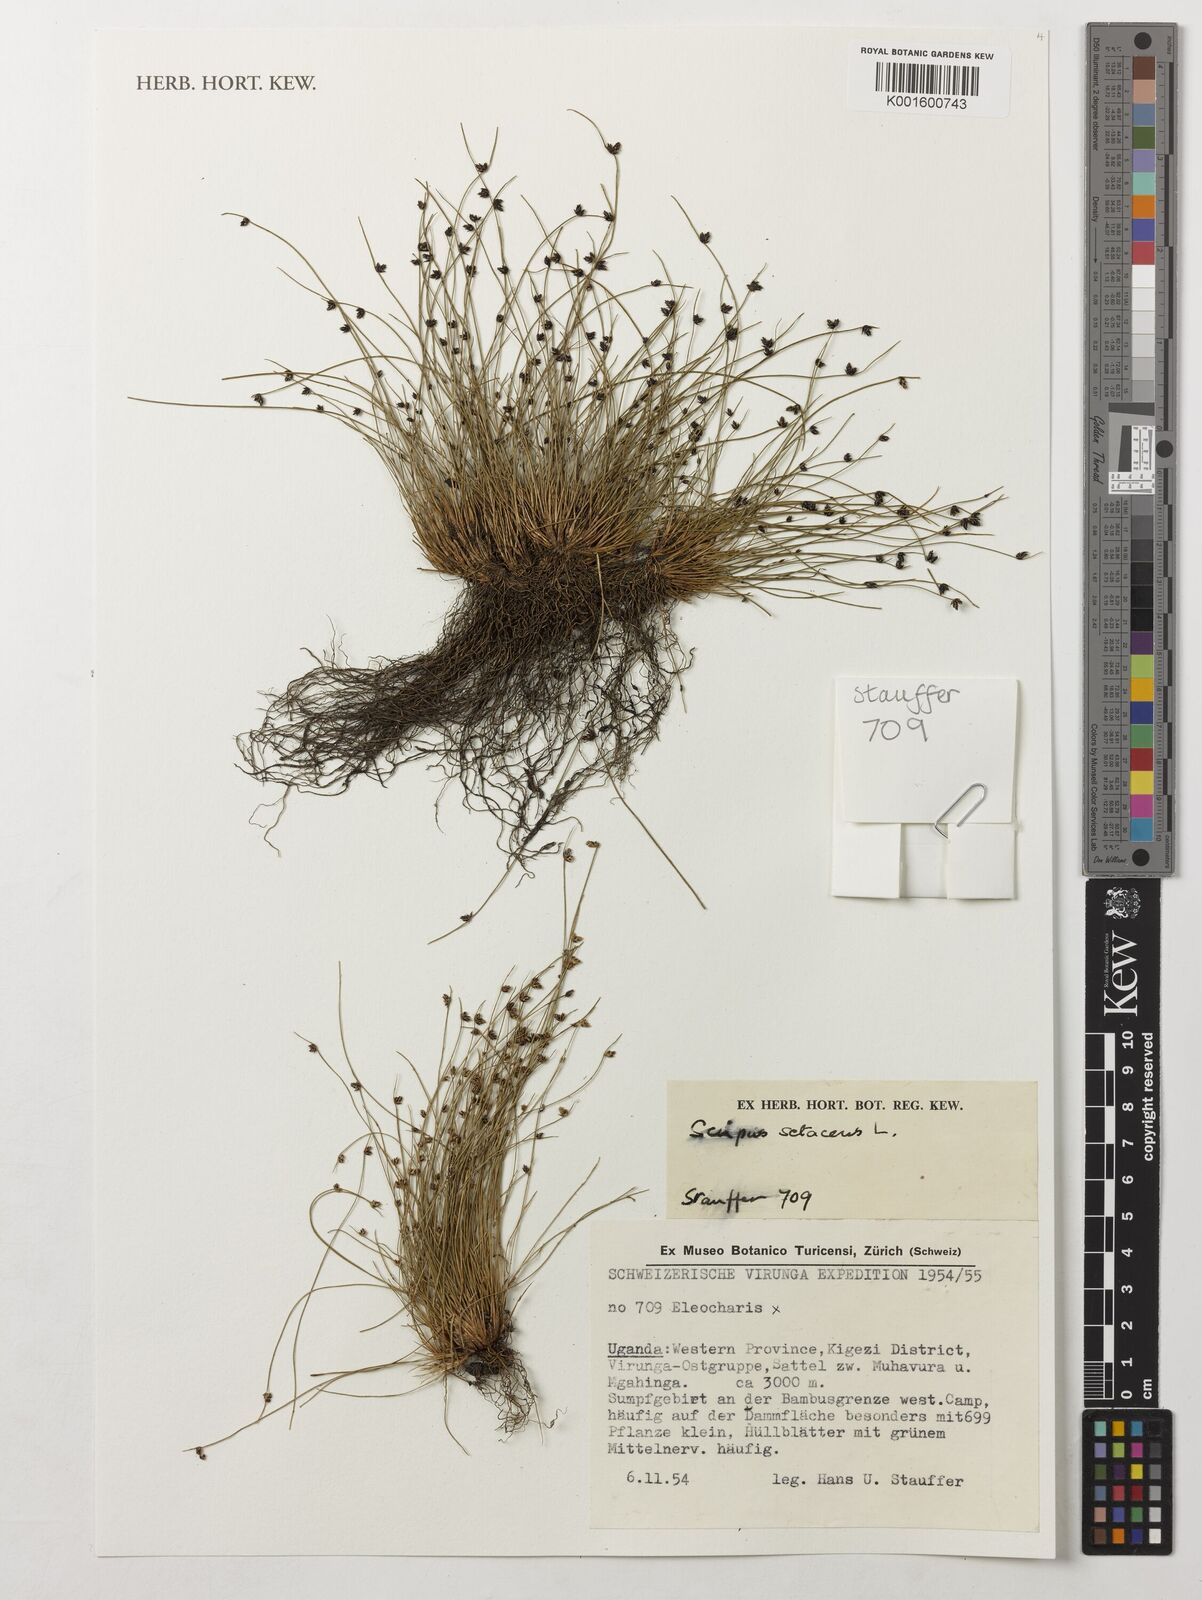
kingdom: Plantae
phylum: Tracheophyta
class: Liliopsida
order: Poales
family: Cyperaceae
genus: Isolepis
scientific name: Isolepis setacea
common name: Bristle club-rush
